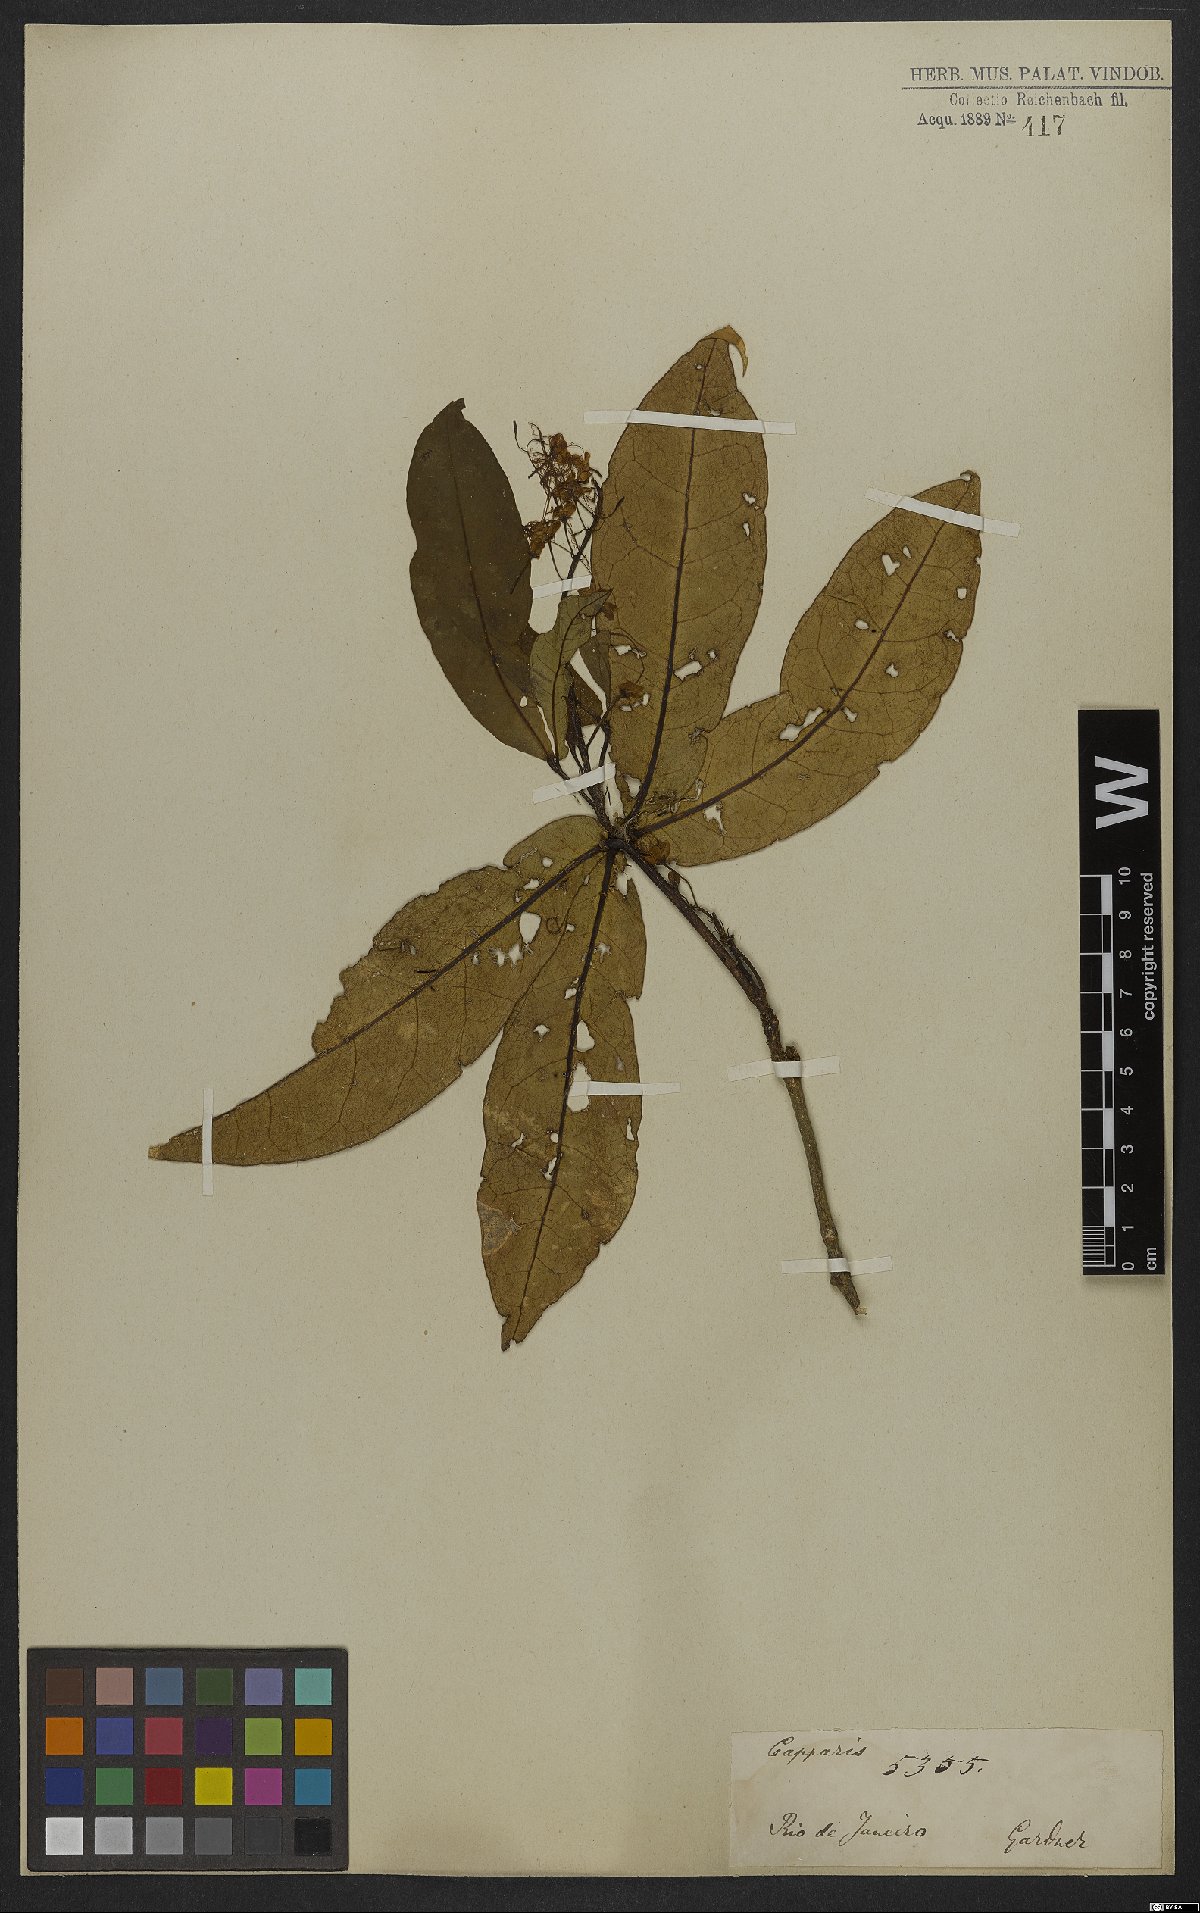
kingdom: Plantae
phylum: Tracheophyta
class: Magnoliopsida
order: Brassicales
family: Capparaceae
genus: Monilicarpa
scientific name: Monilicarpa brasiliana
